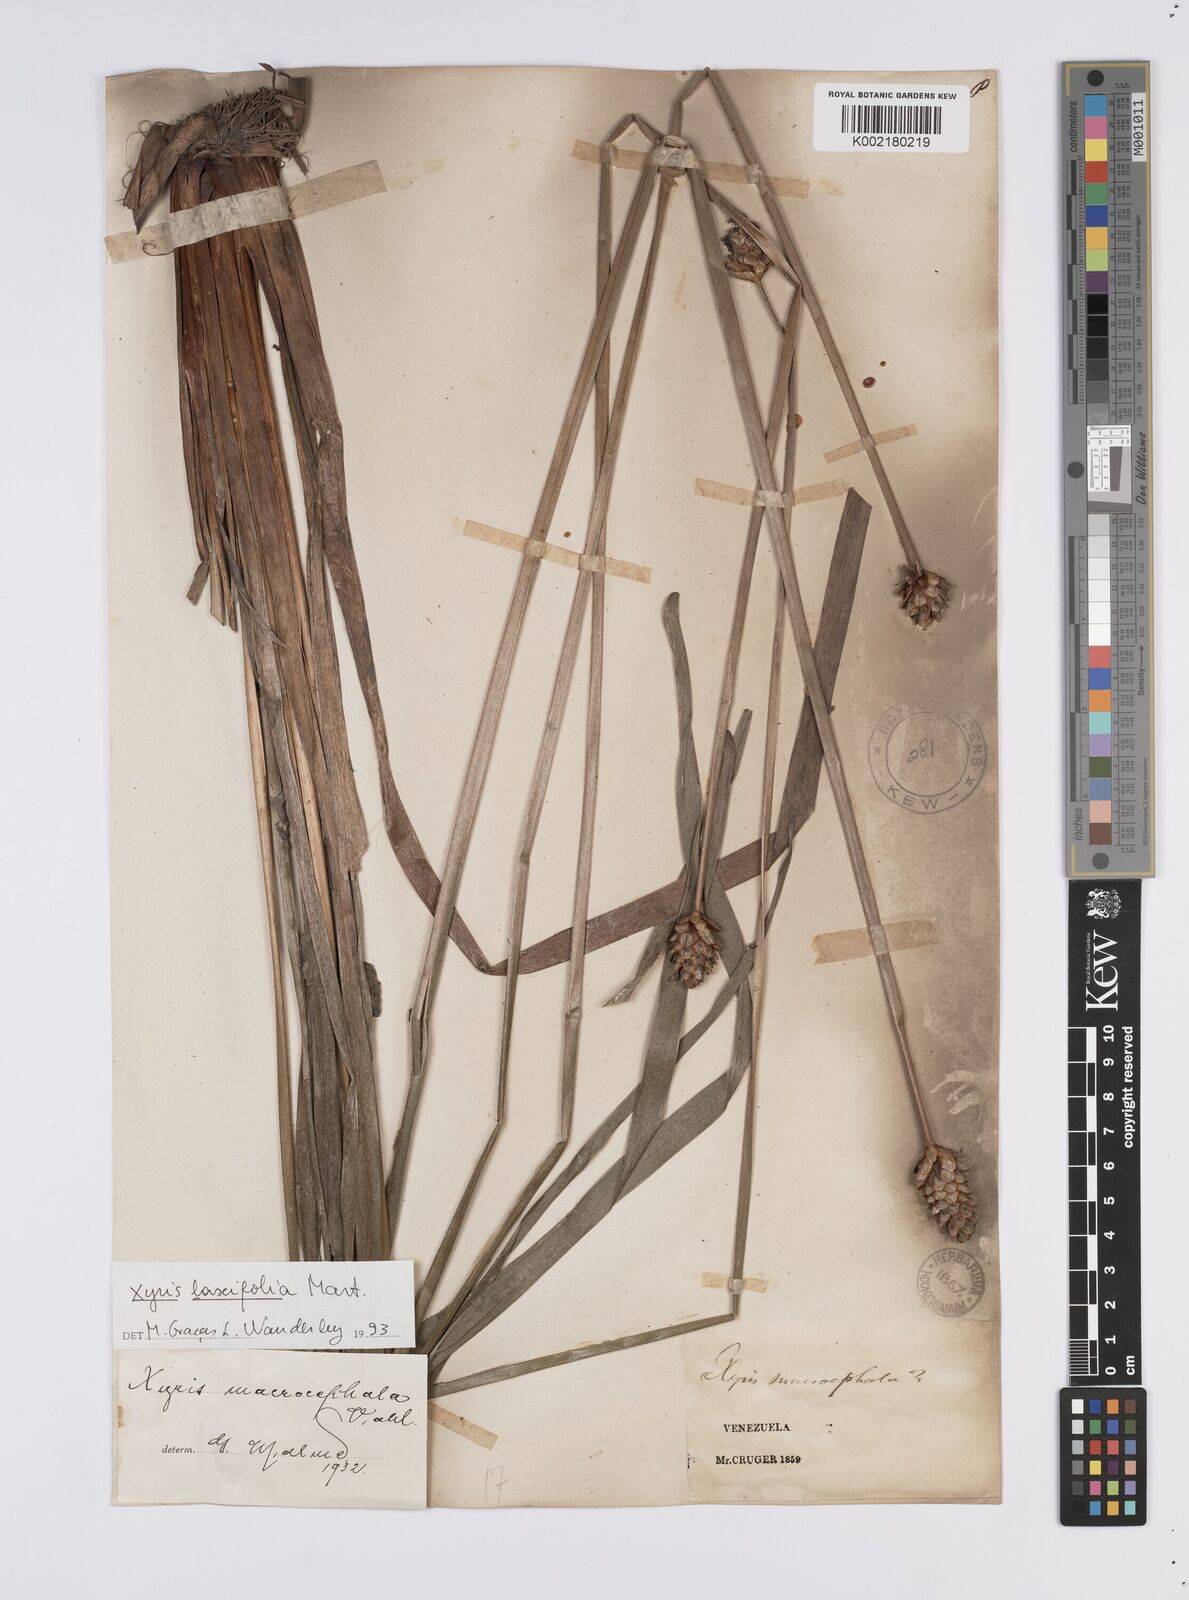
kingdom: Plantae
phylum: Tracheophyta
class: Liliopsida
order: Poales
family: Xyridaceae
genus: Xyris
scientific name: Xyris laxiflora
